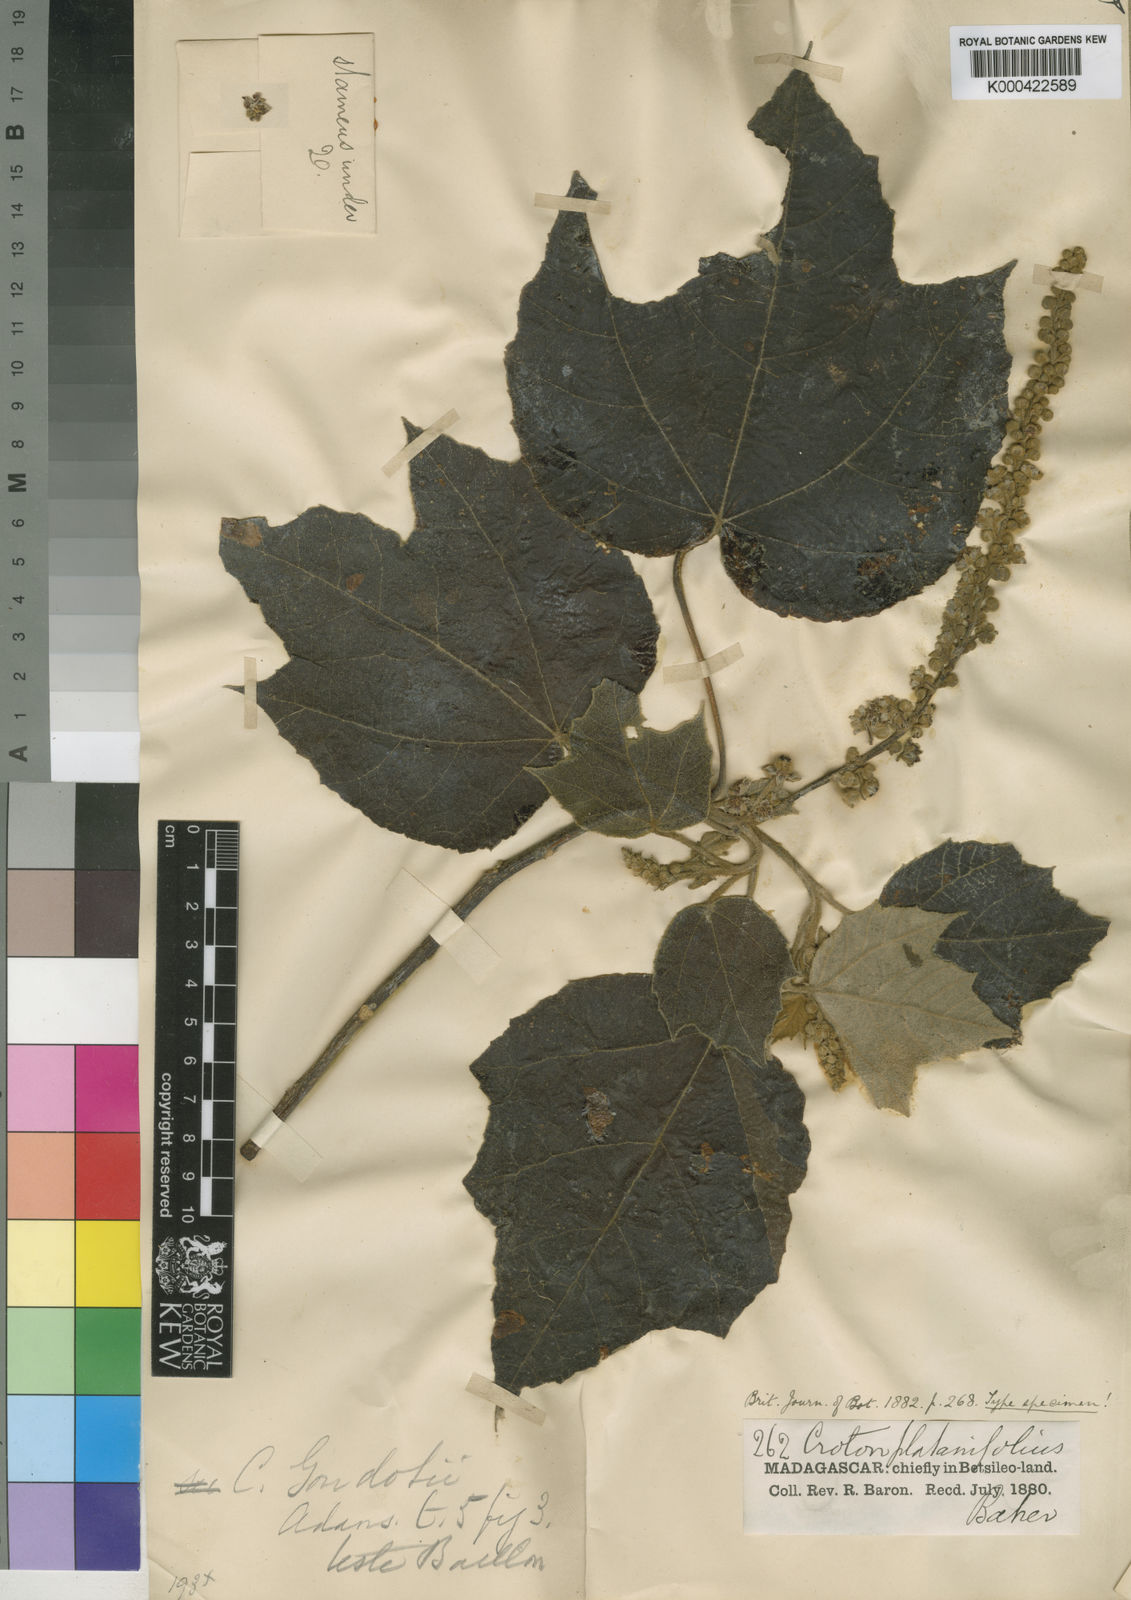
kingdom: Plantae
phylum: Tracheophyta
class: Magnoliopsida
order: Malpighiales
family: Euphorbiaceae
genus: Croton
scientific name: Croton goudotii
